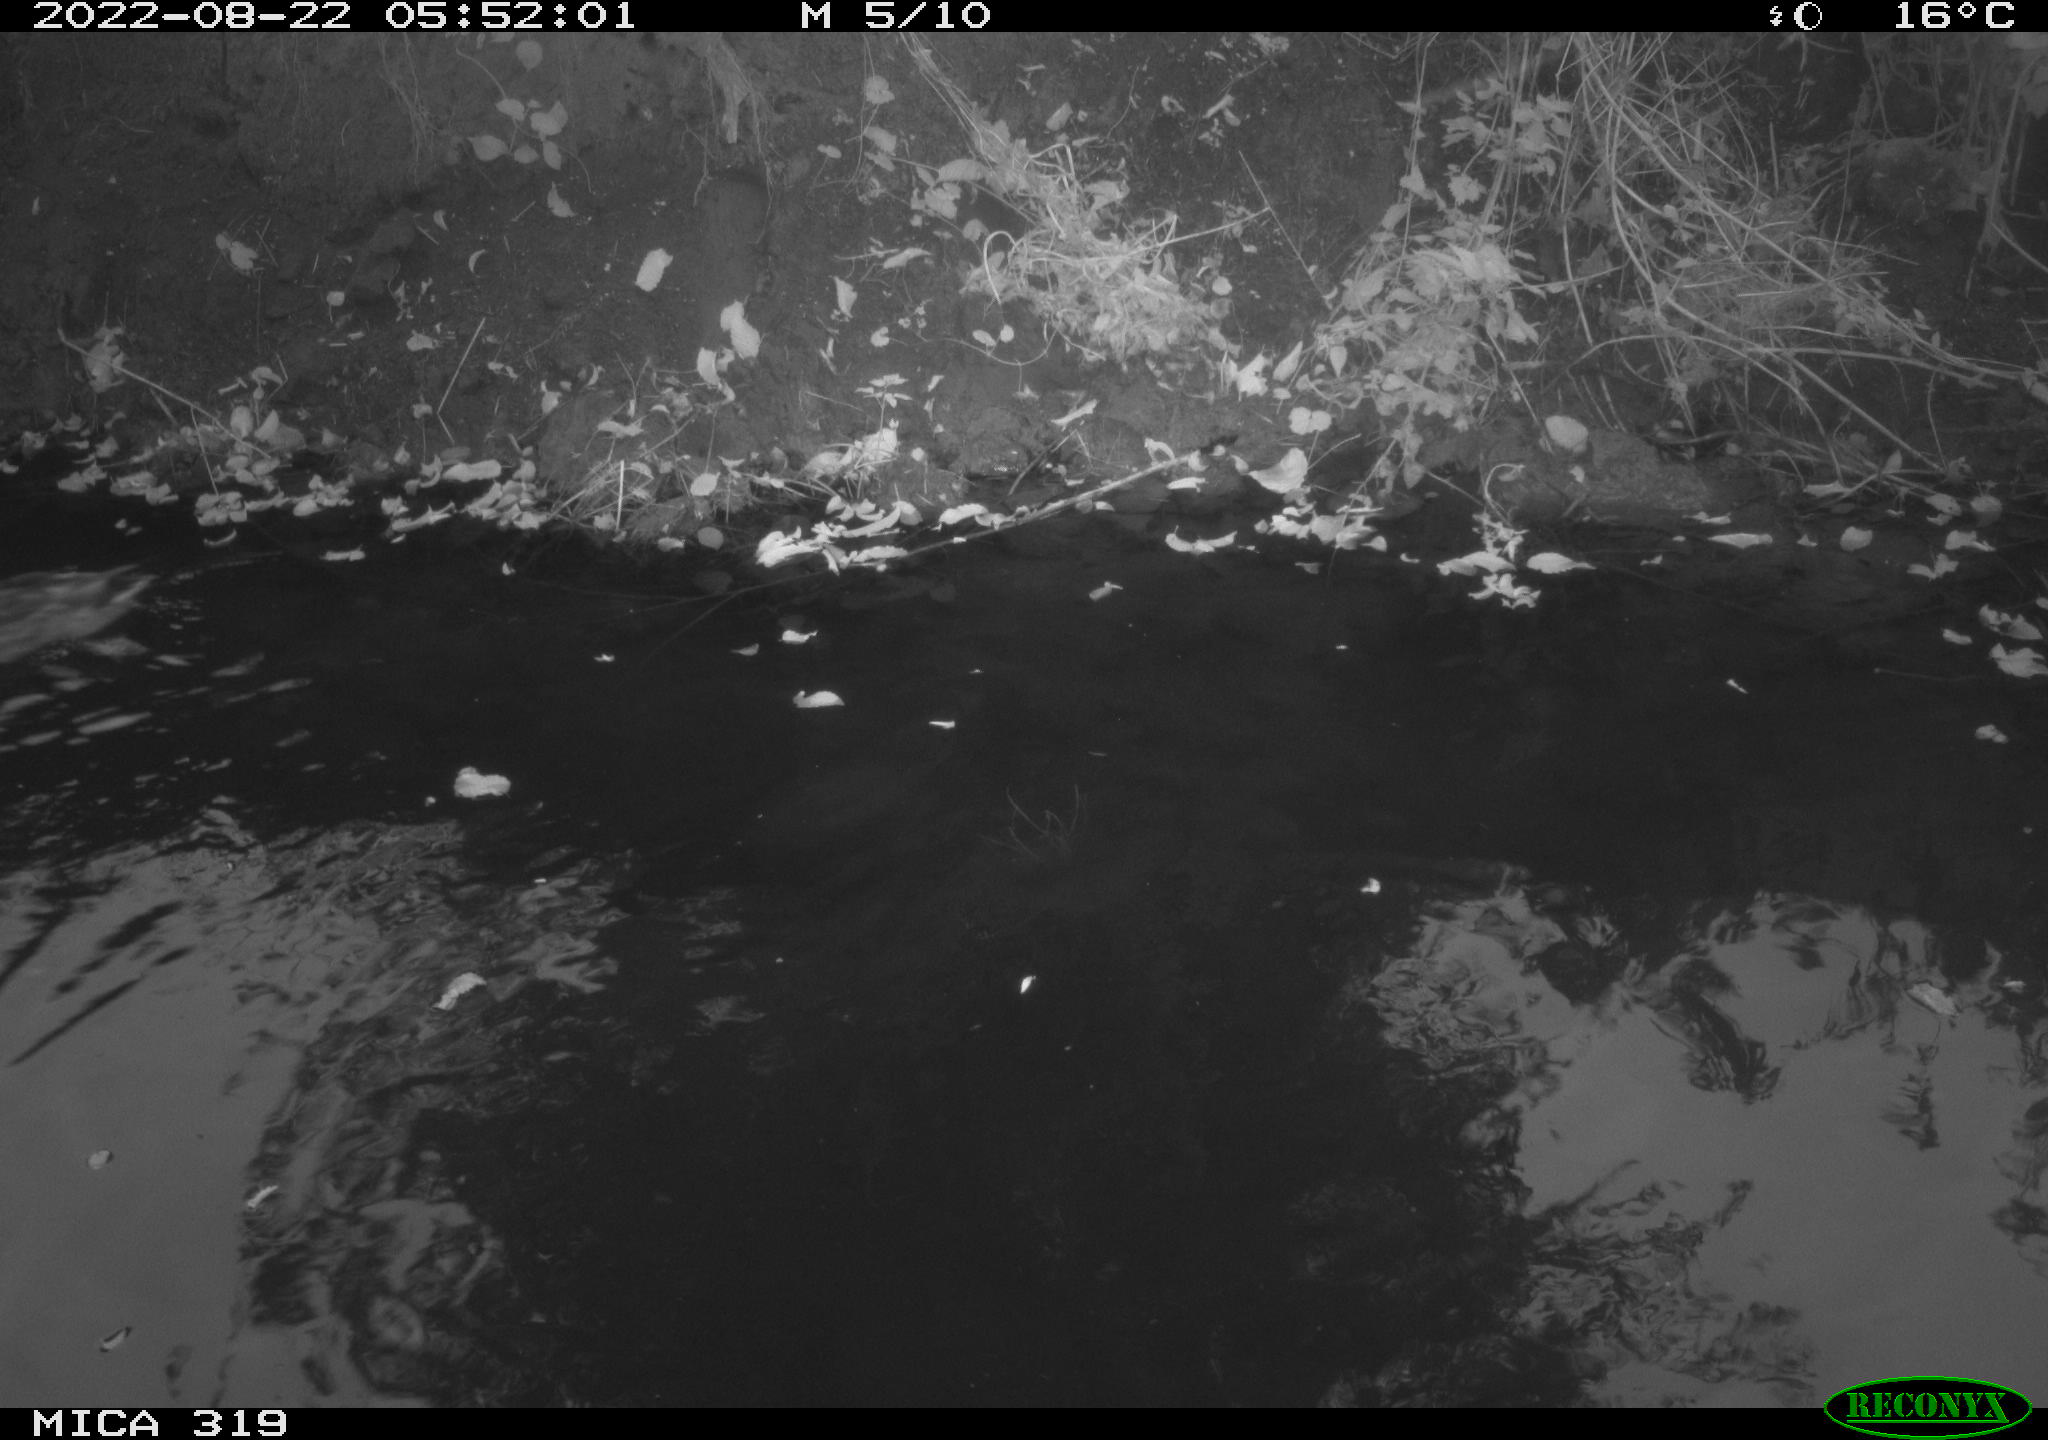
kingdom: Animalia
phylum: Chordata
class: Aves
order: Anseriformes
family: Anatidae
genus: Anas
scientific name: Anas
